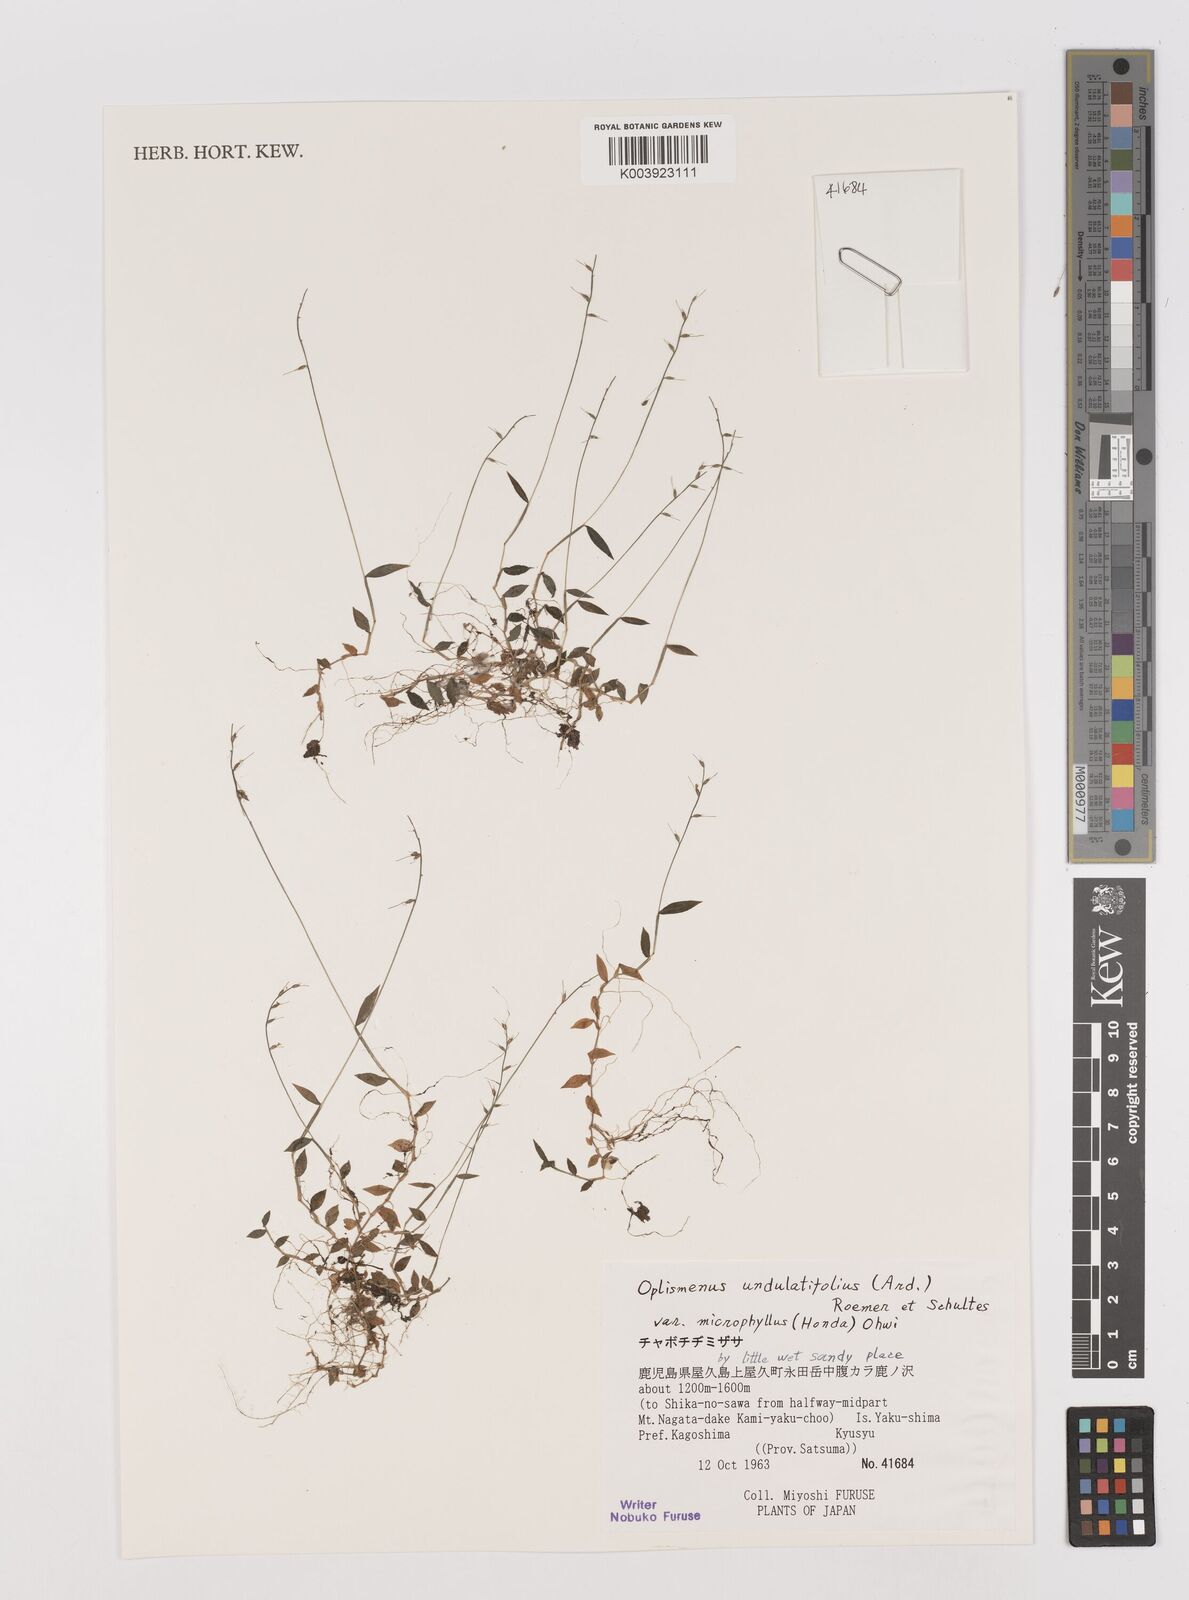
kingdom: Plantae
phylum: Tracheophyta
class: Liliopsida
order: Poales
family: Poaceae
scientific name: Poaceae
